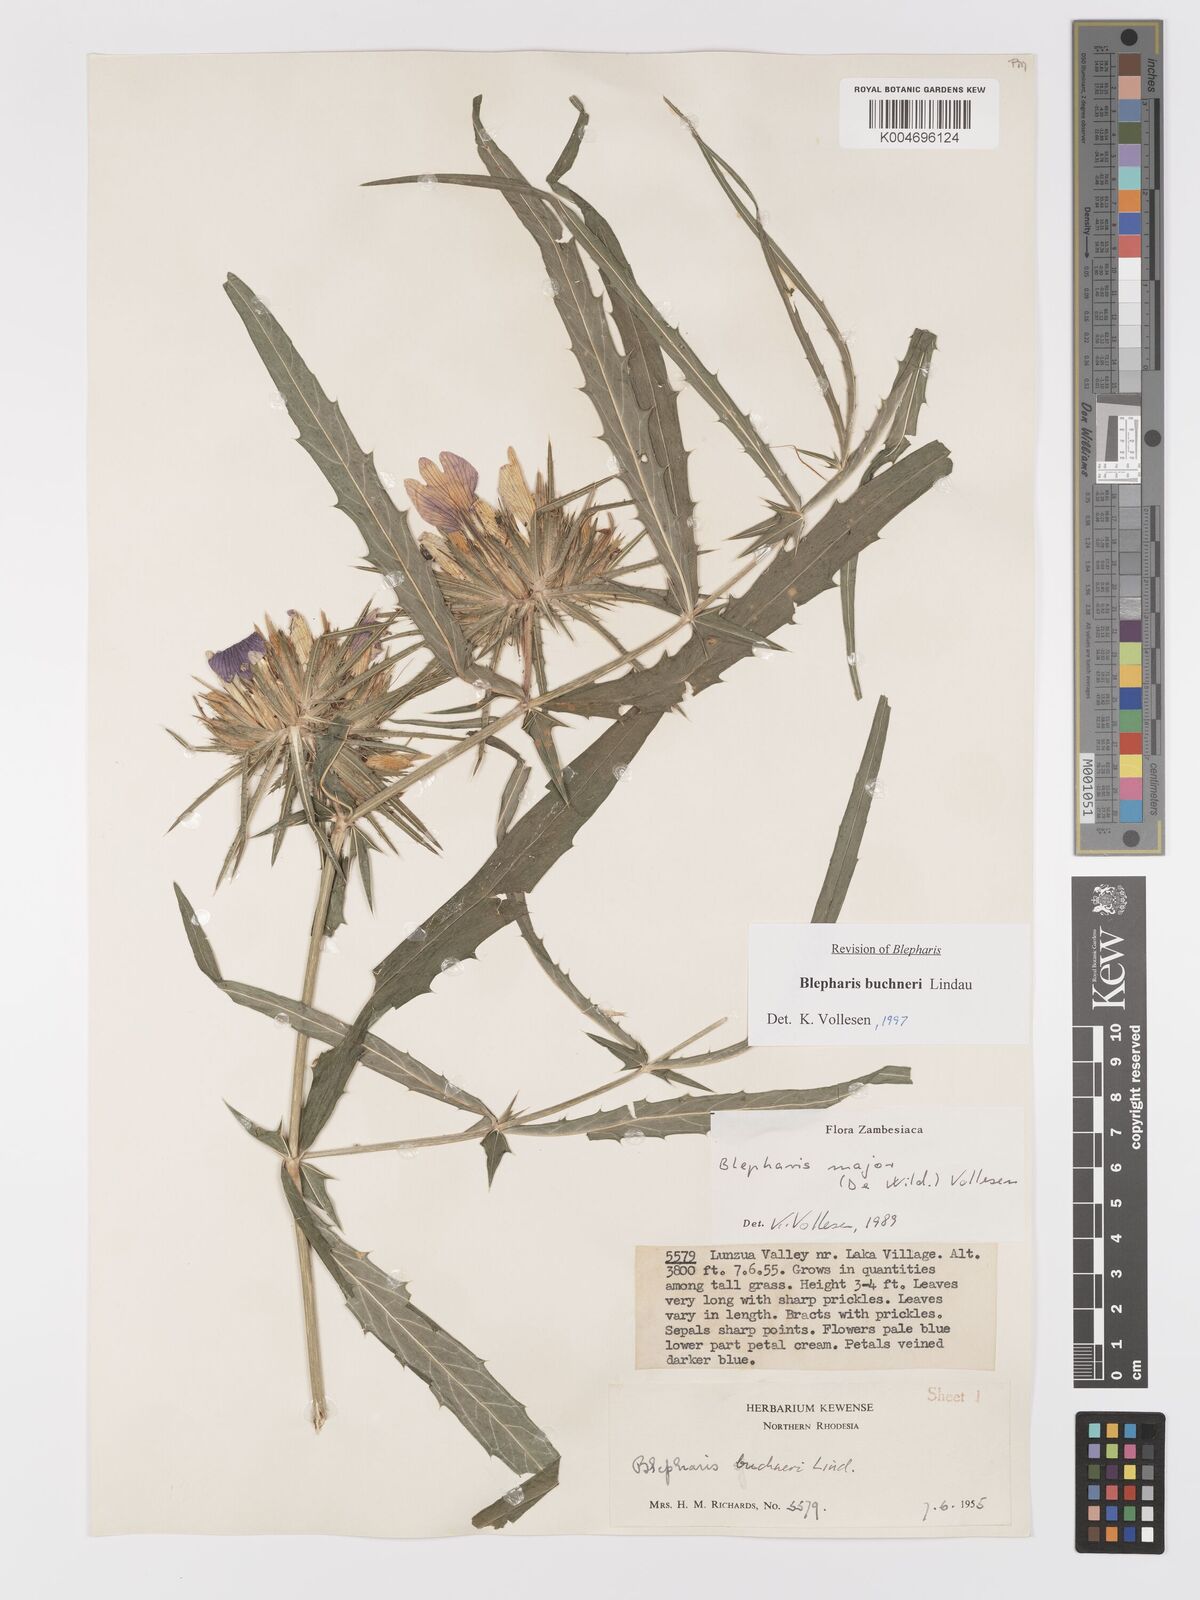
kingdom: Plantae
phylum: Tracheophyta
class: Magnoliopsida
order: Lamiales
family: Acanthaceae
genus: Blepharis
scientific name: Blepharis buchneri
